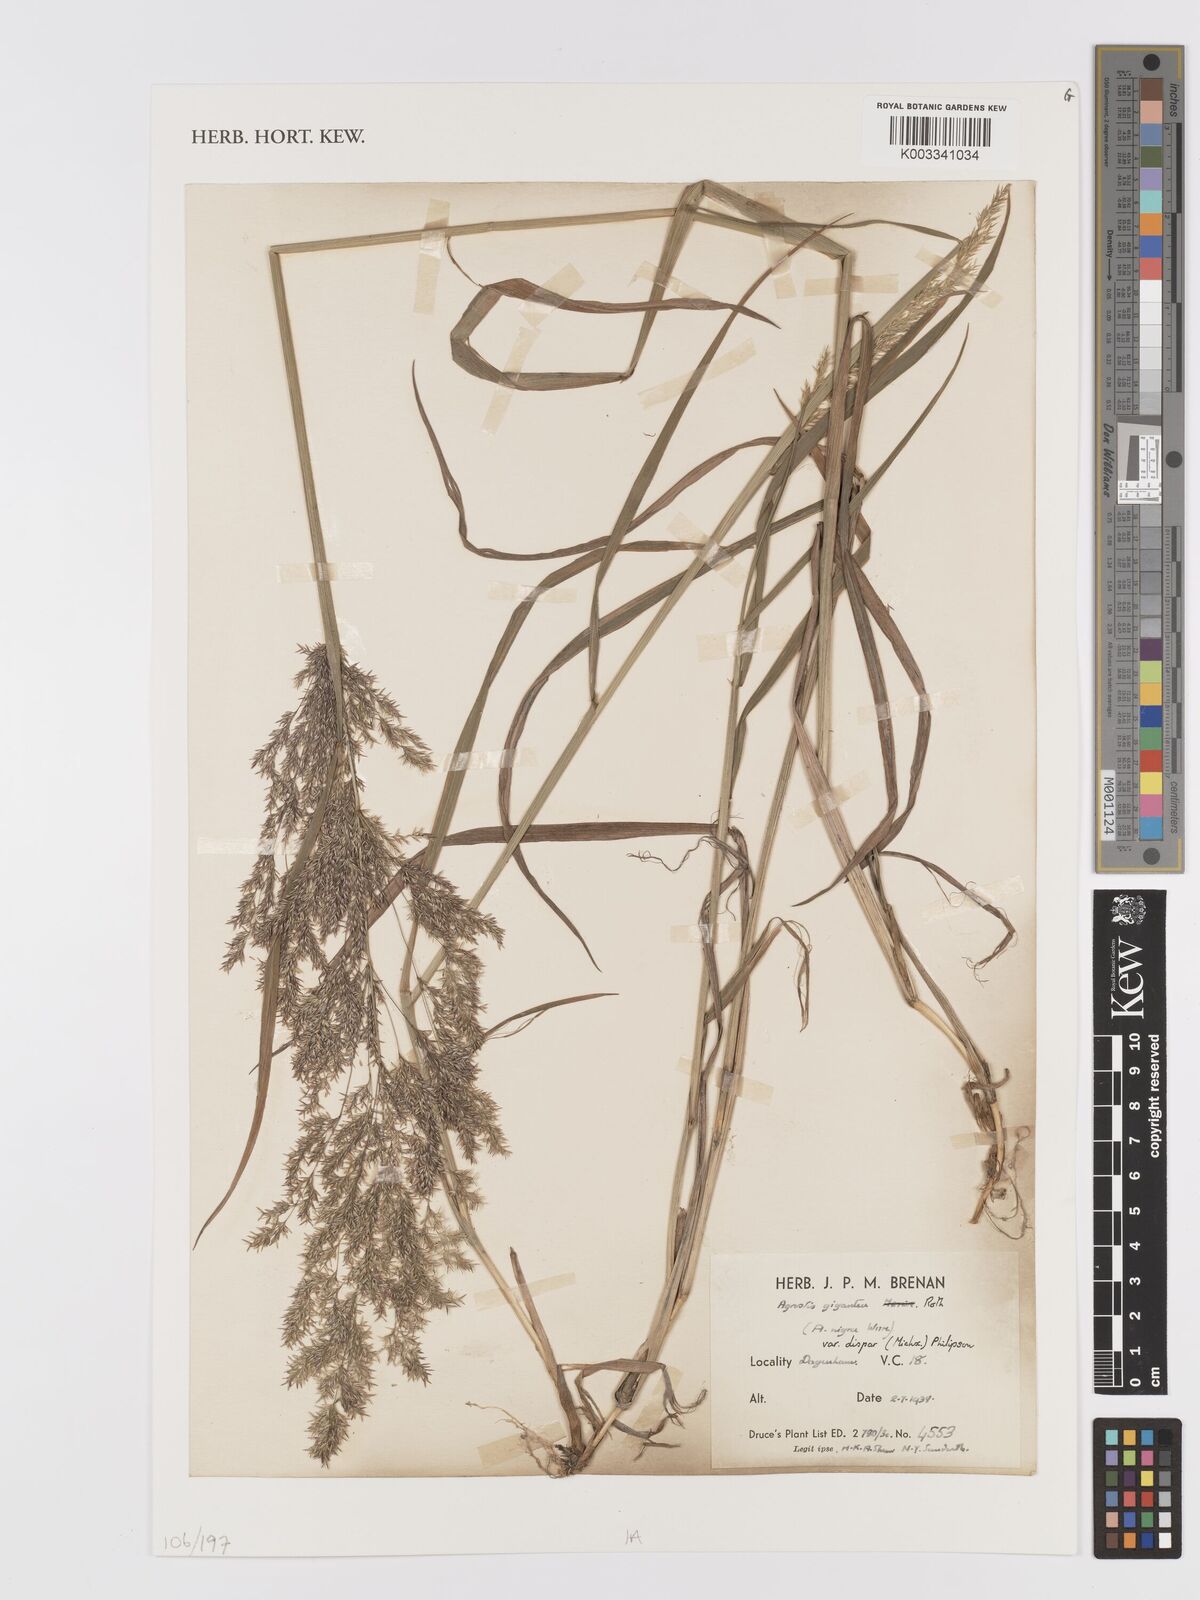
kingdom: Plantae
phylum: Tracheophyta
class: Liliopsida
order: Poales
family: Poaceae
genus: Agrostis
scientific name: Agrostis gigantea
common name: Black bent
